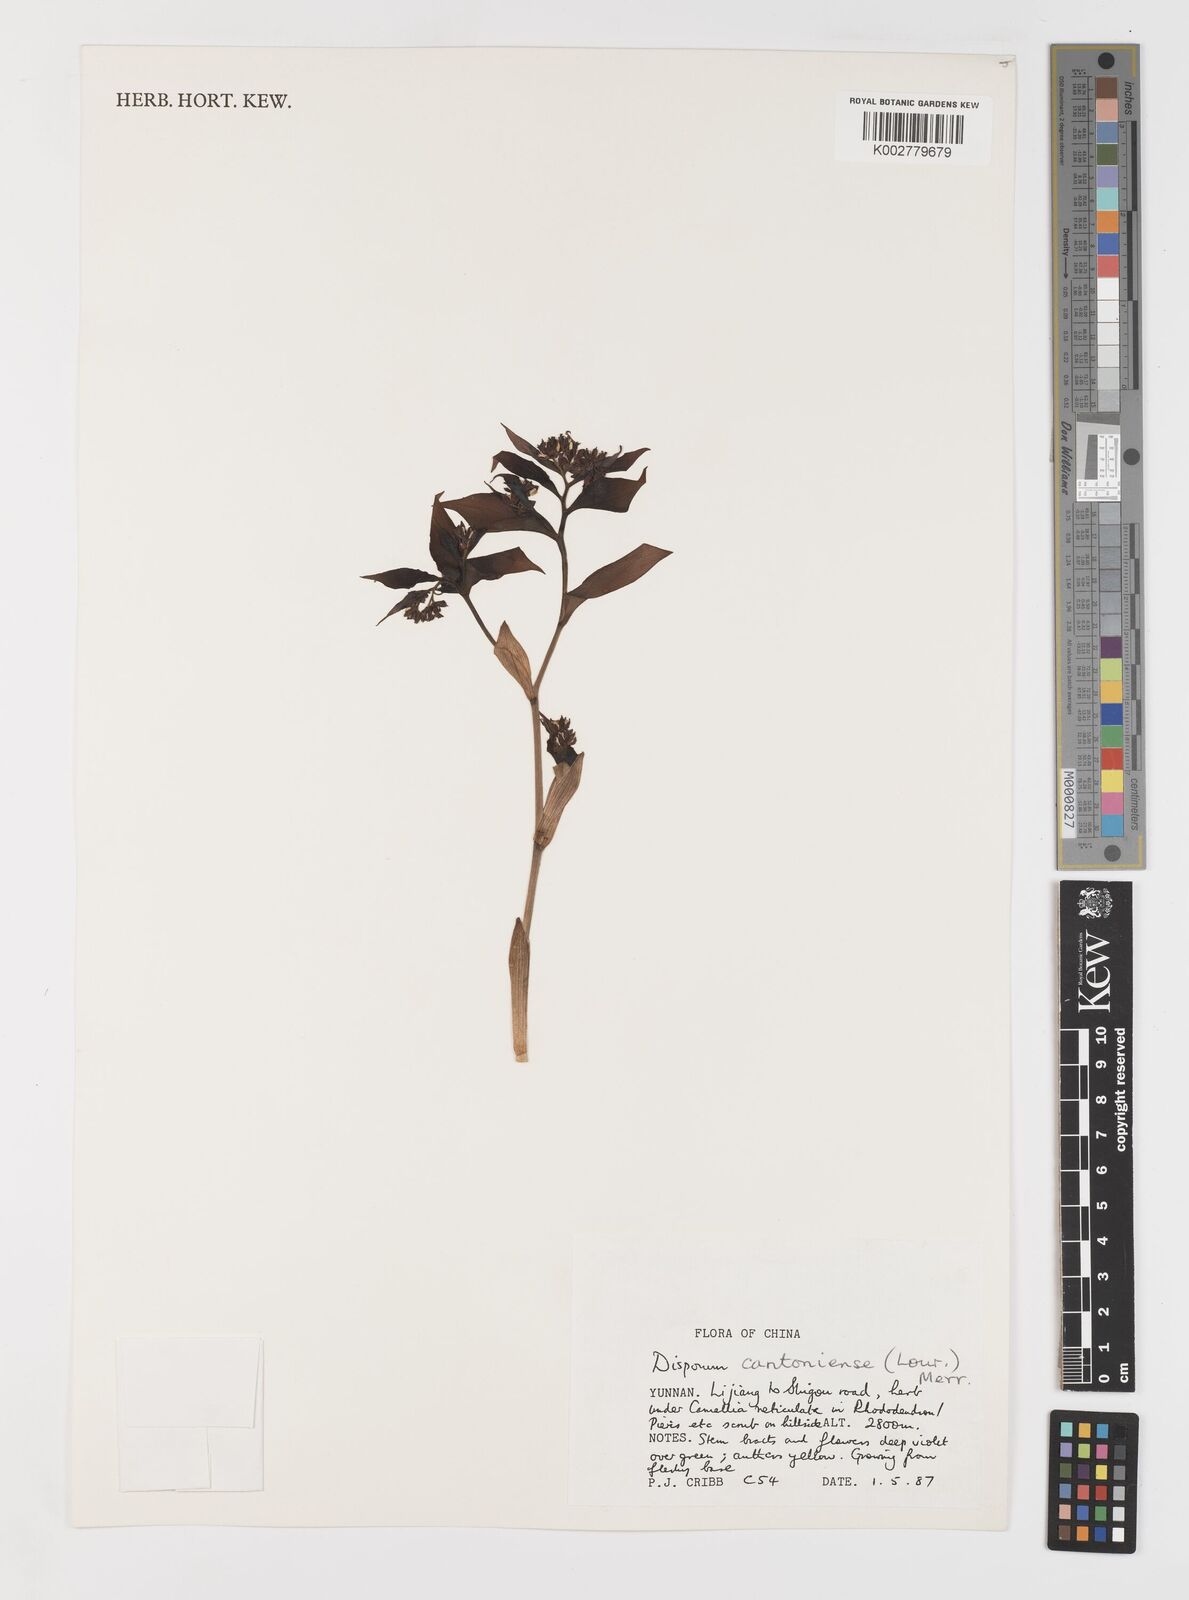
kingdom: Plantae
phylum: Tracheophyta
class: Liliopsida
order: Liliales
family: Colchicaceae
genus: Disporum
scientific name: Disporum cantoniense
